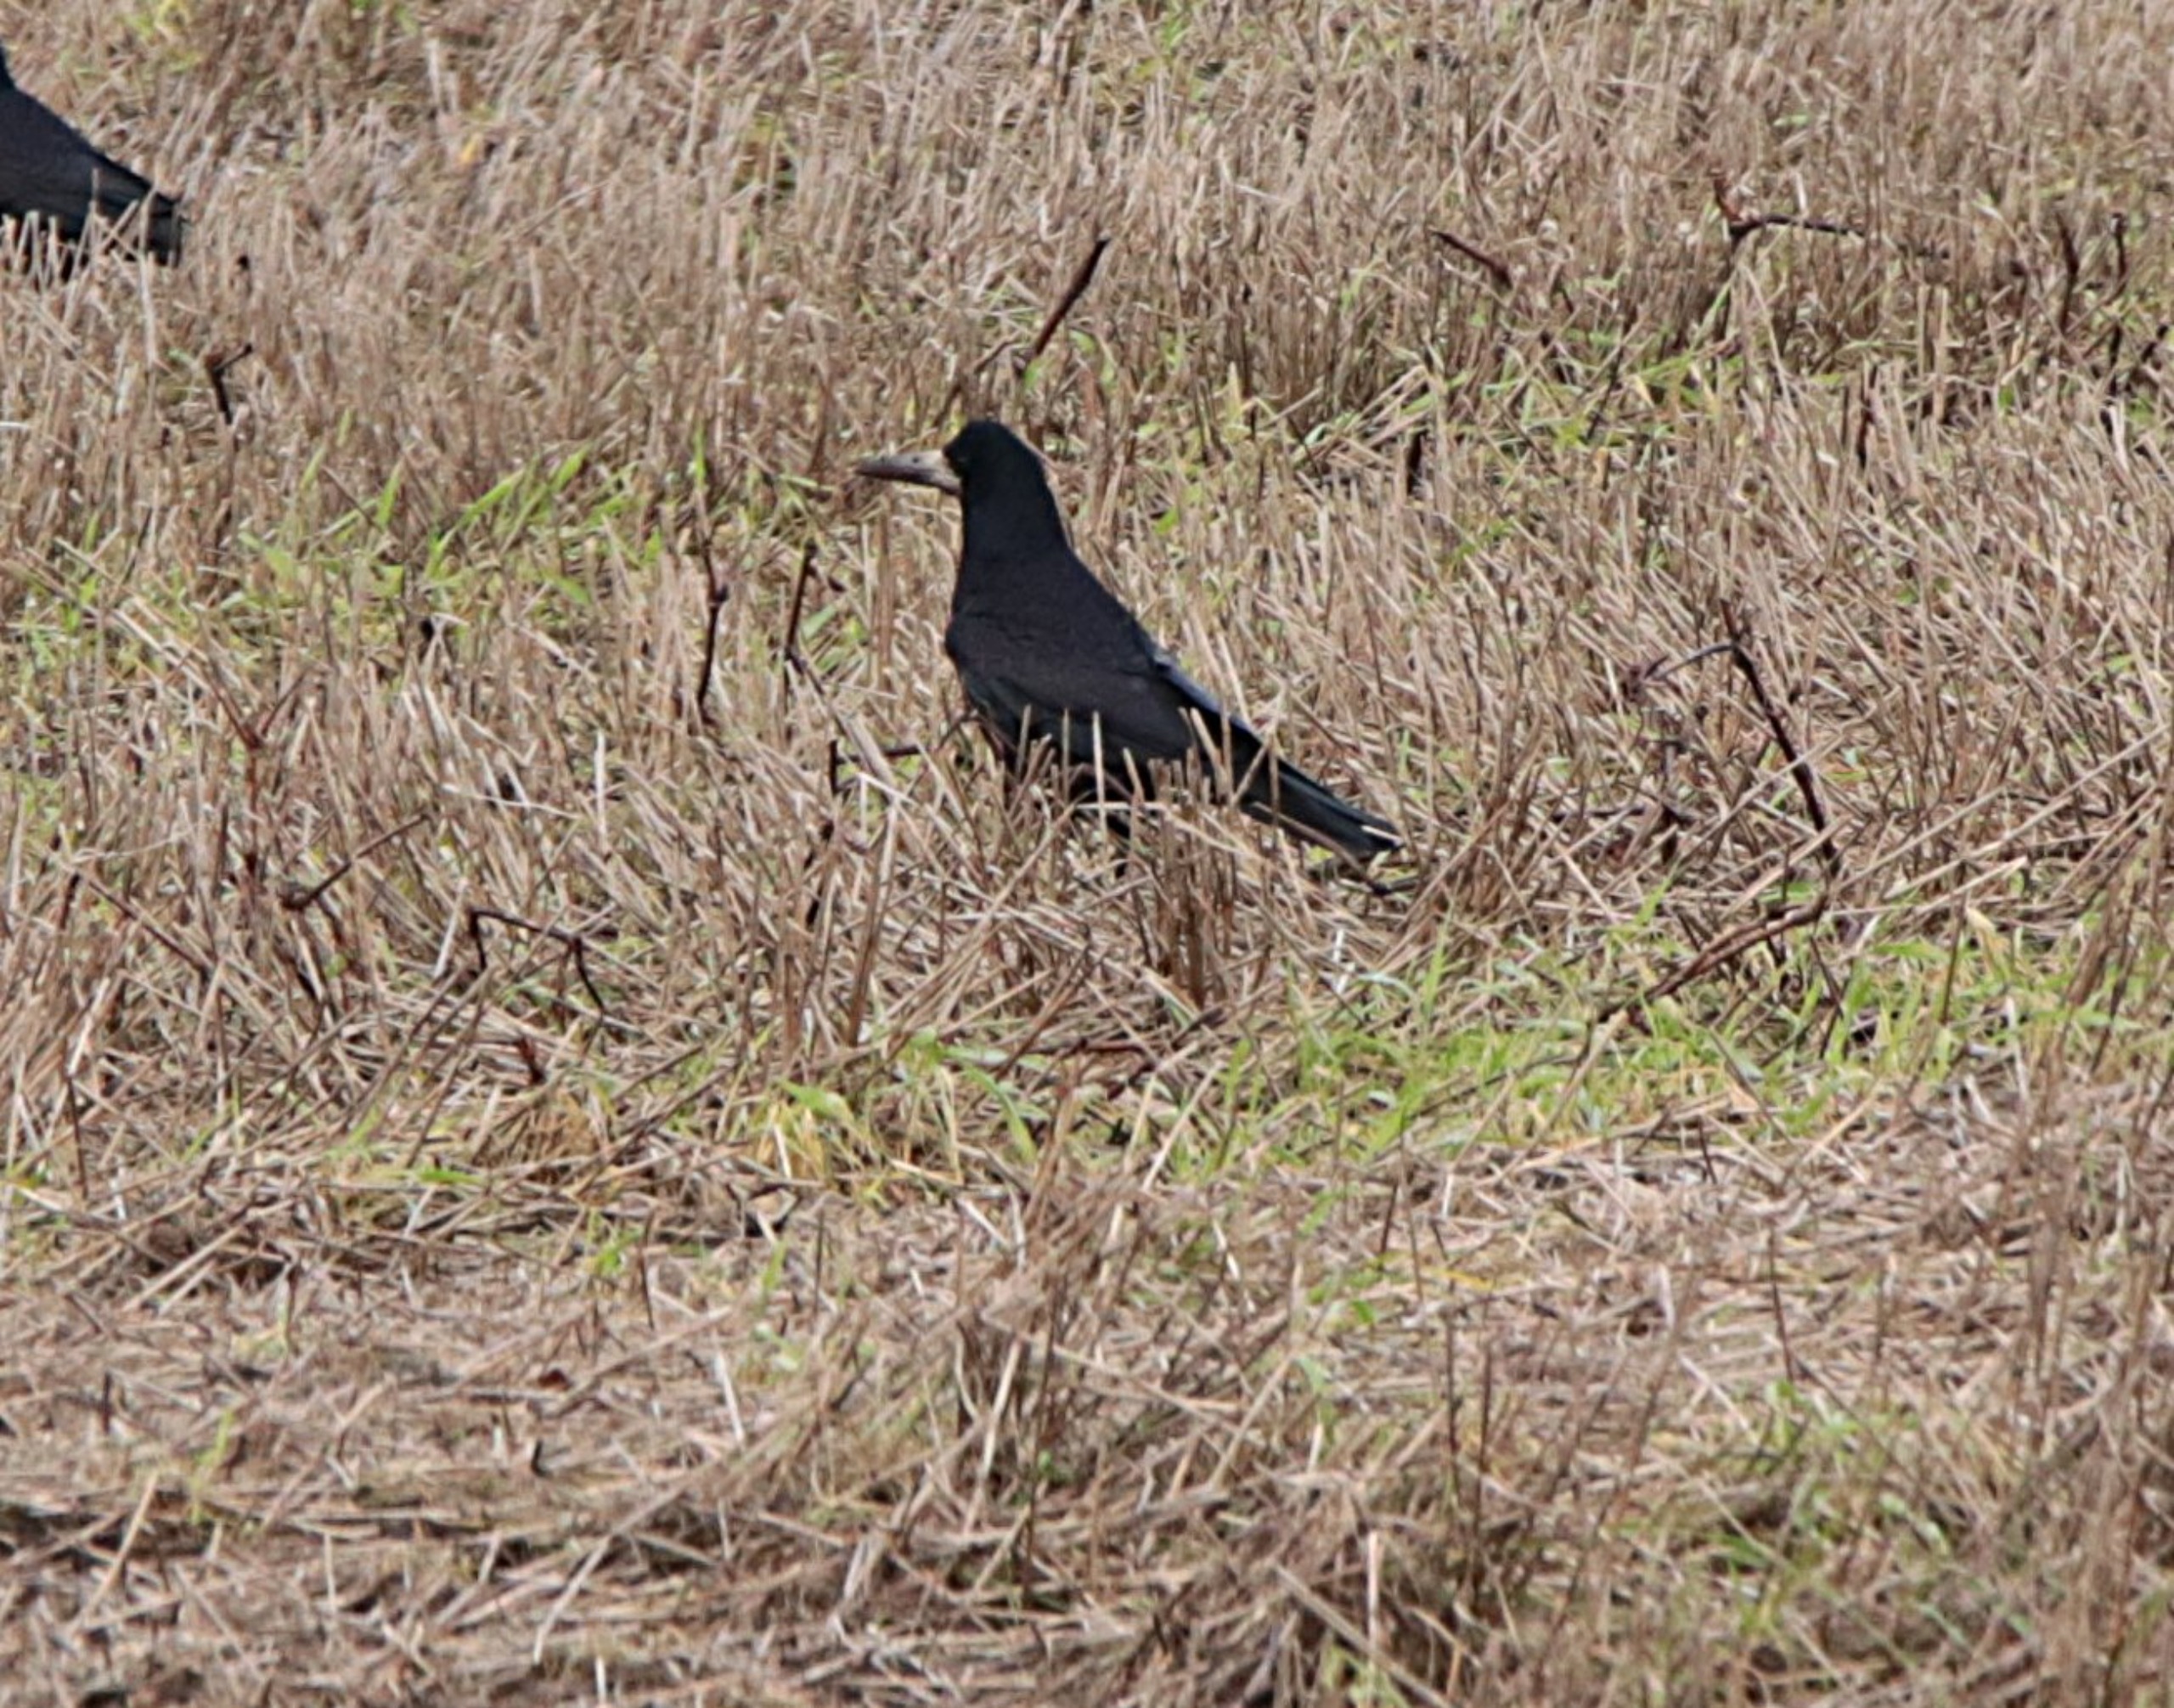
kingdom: Animalia
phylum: Chordata
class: Aves
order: Passeriformes
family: Corvidae
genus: Corvus
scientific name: Corvus frugilegus
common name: Råge
